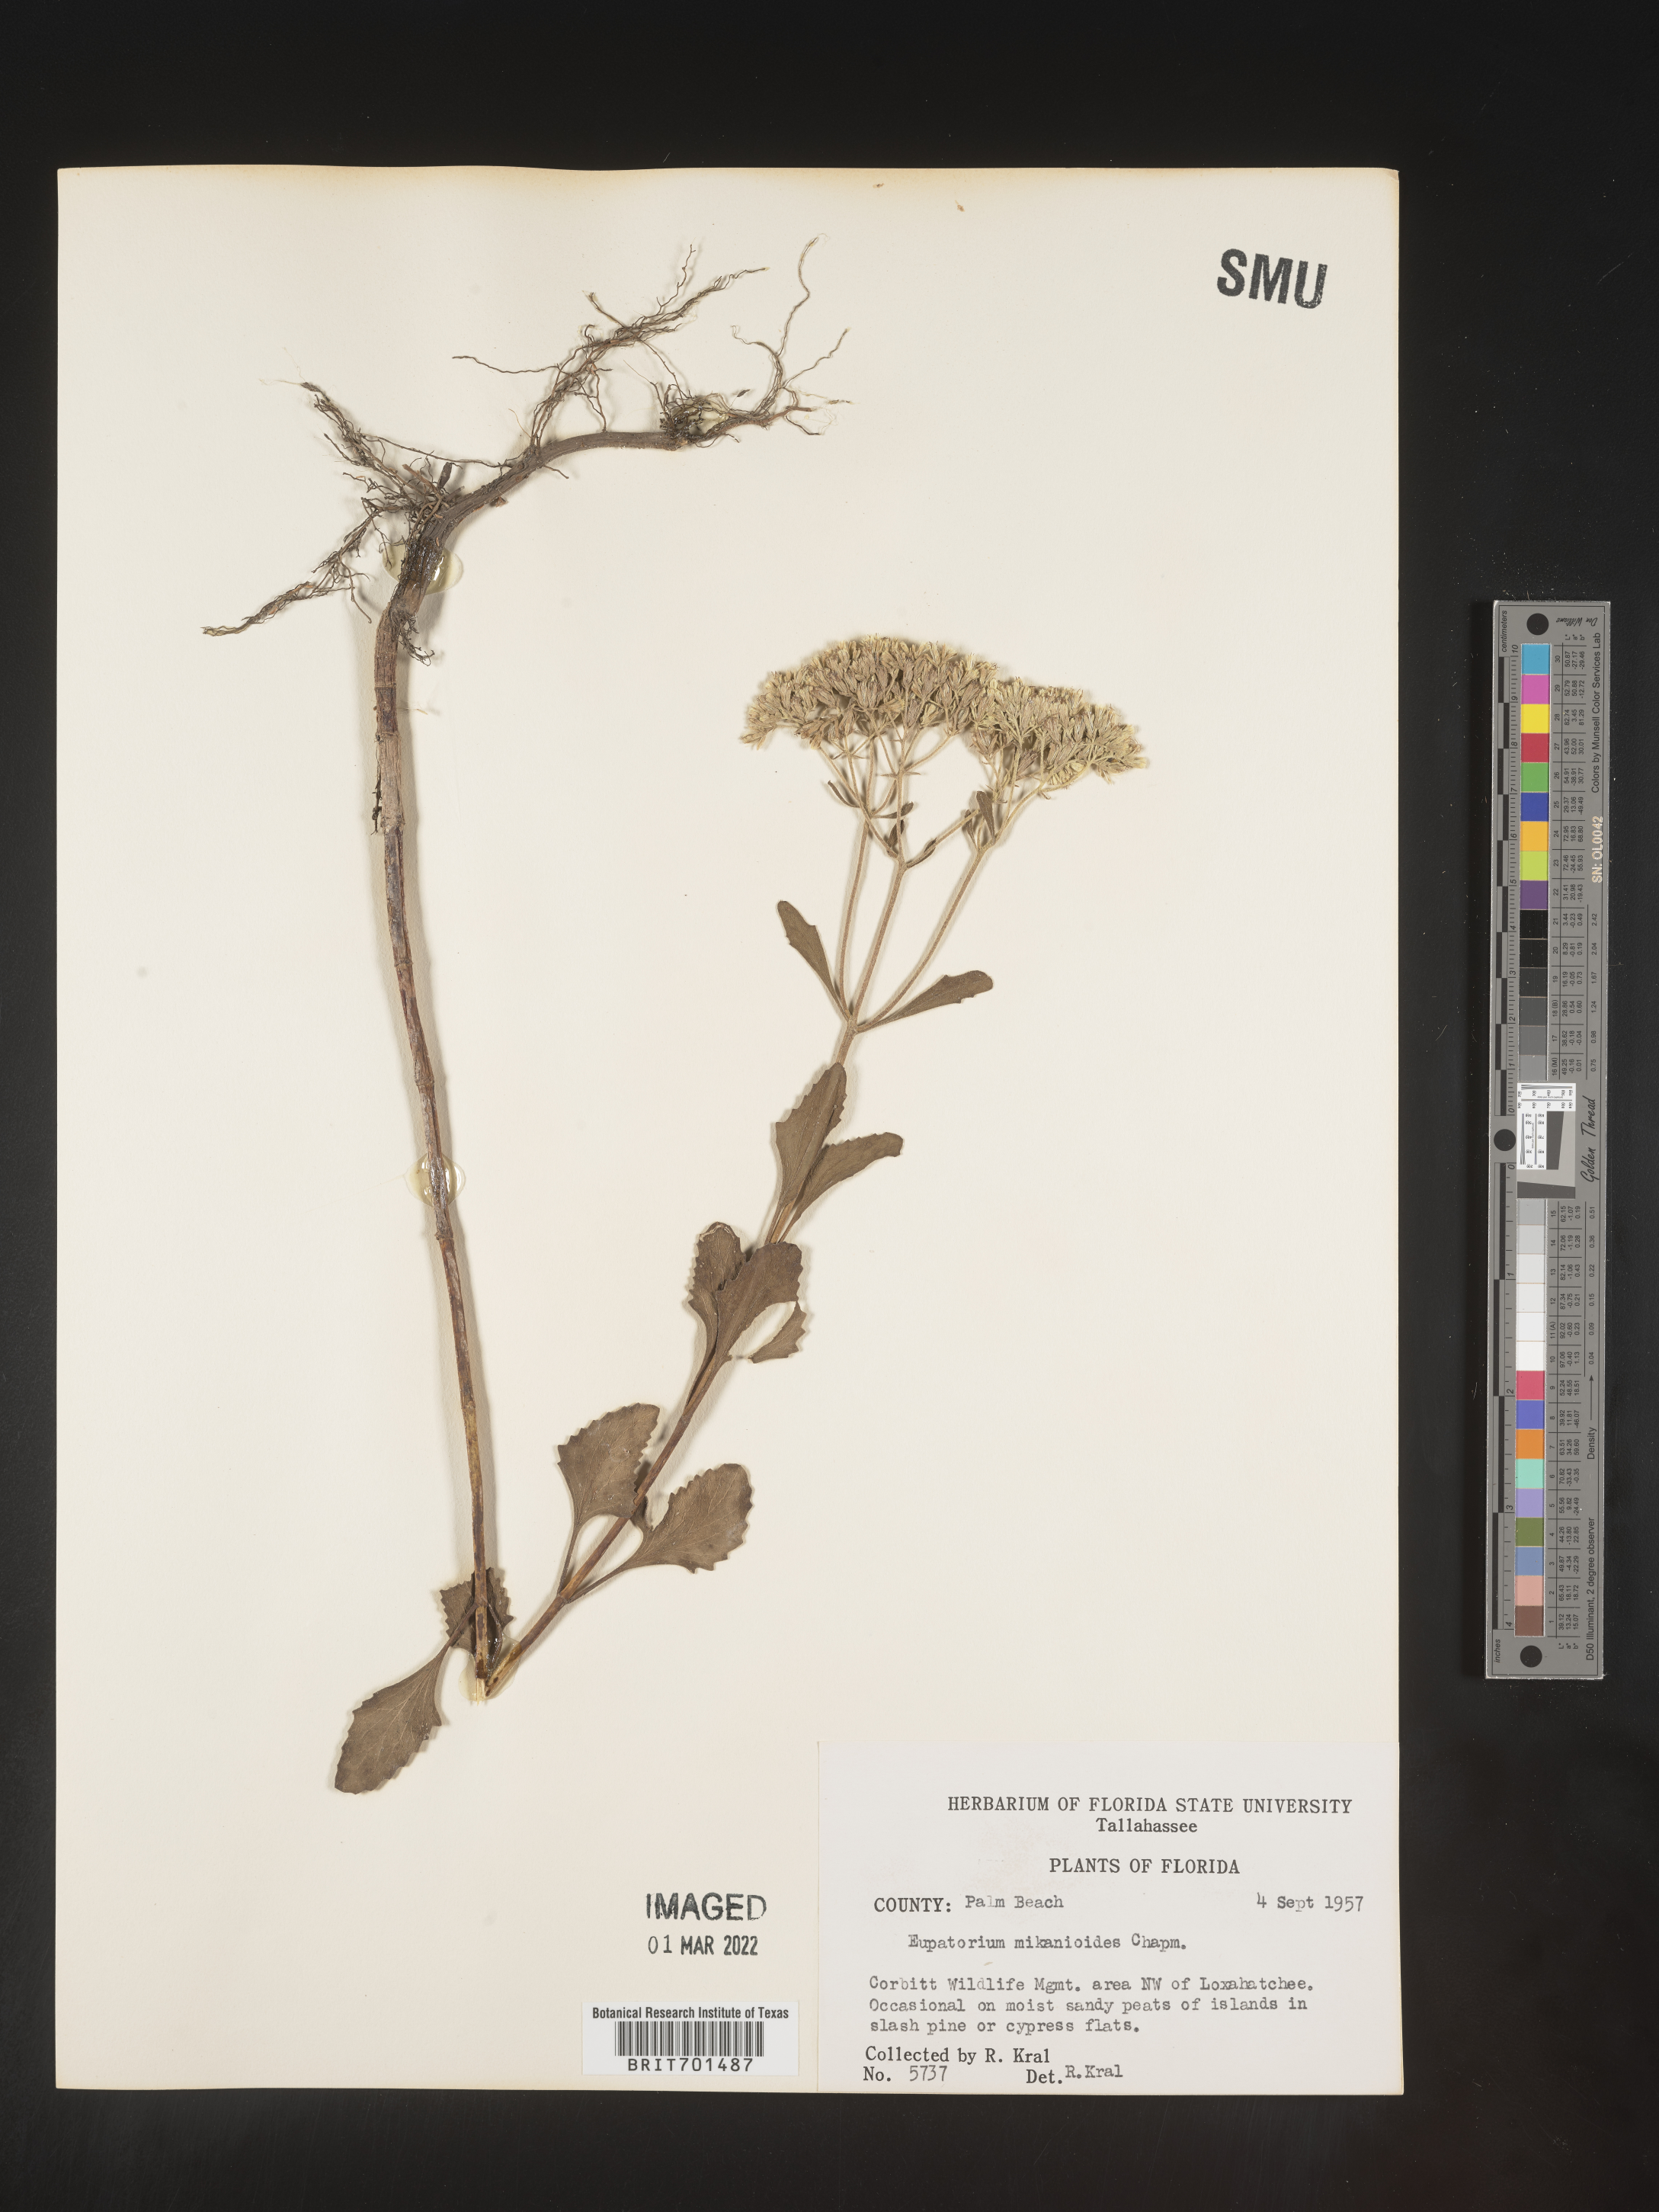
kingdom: Plantae
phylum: Tracheophyta
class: Magnoliopsida
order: Asterales
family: Asteraceae
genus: Eupatorium
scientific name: Eupatorium
